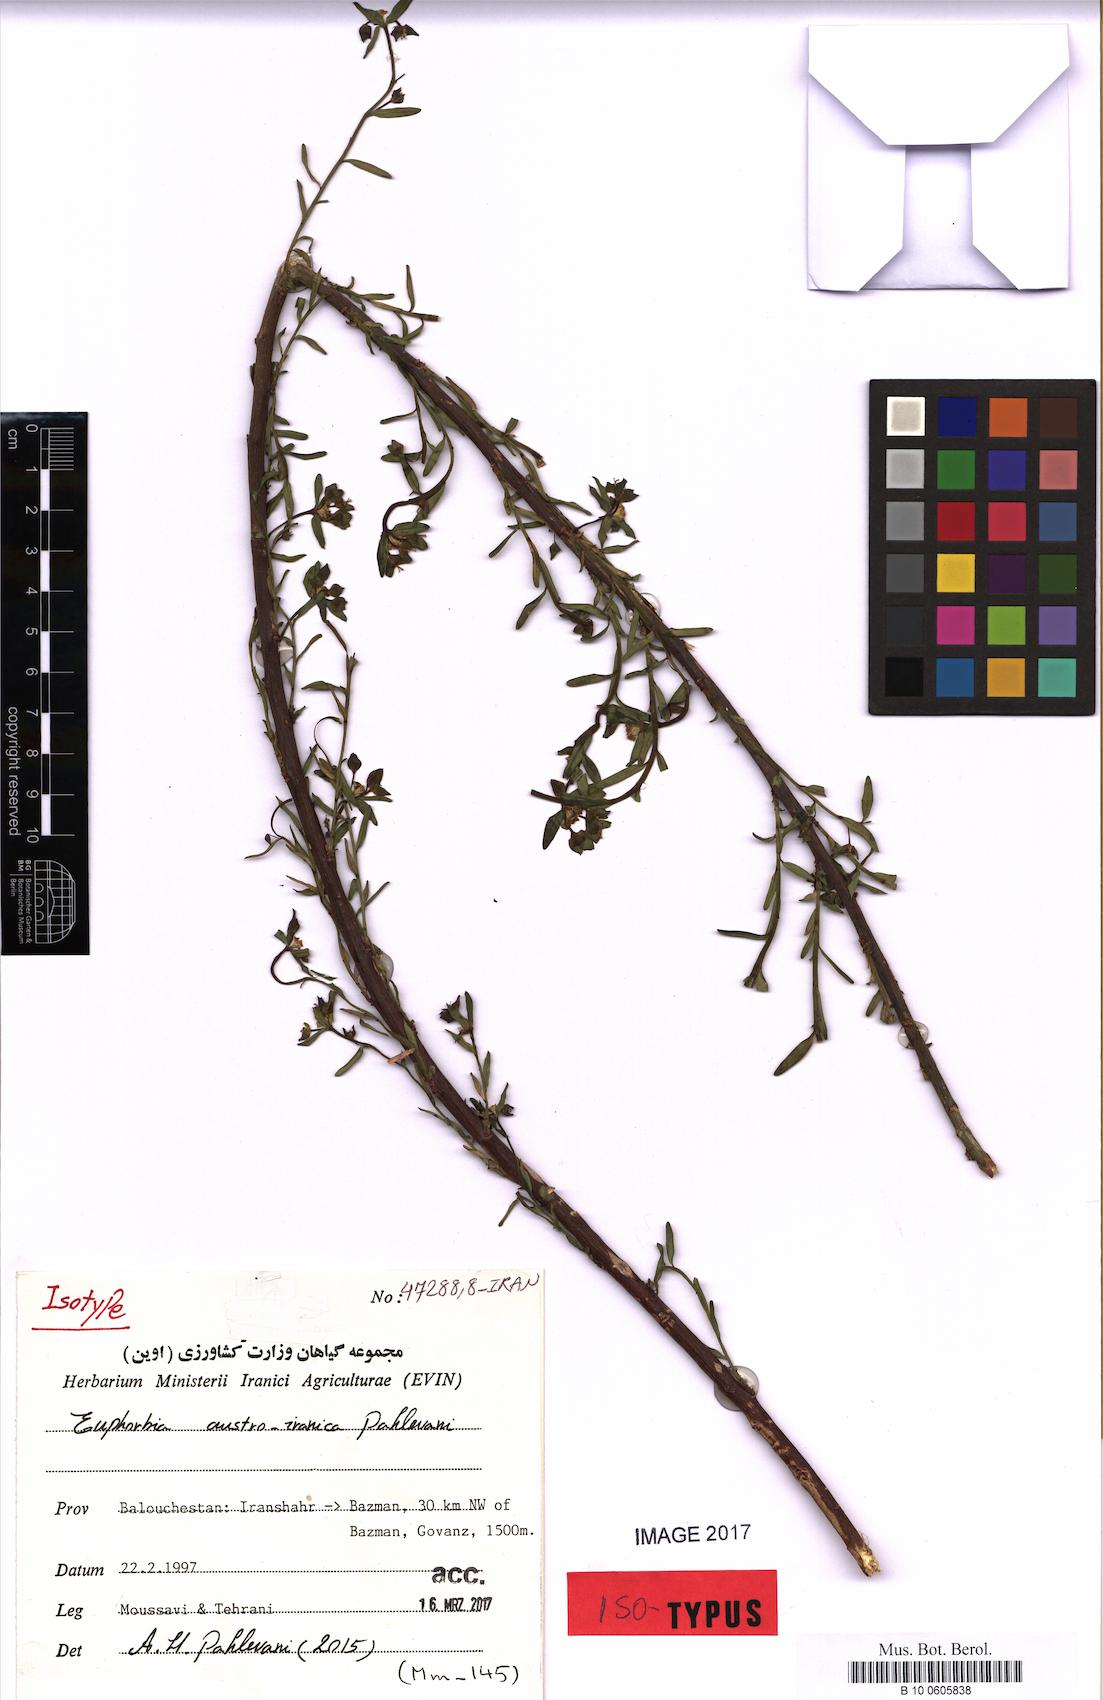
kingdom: Plantae
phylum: Tracheophyta
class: Magnoliopsida
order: Malpighiales
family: Euphorbiaceae
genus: Euphorbia
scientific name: Euphorbia austroiranica
